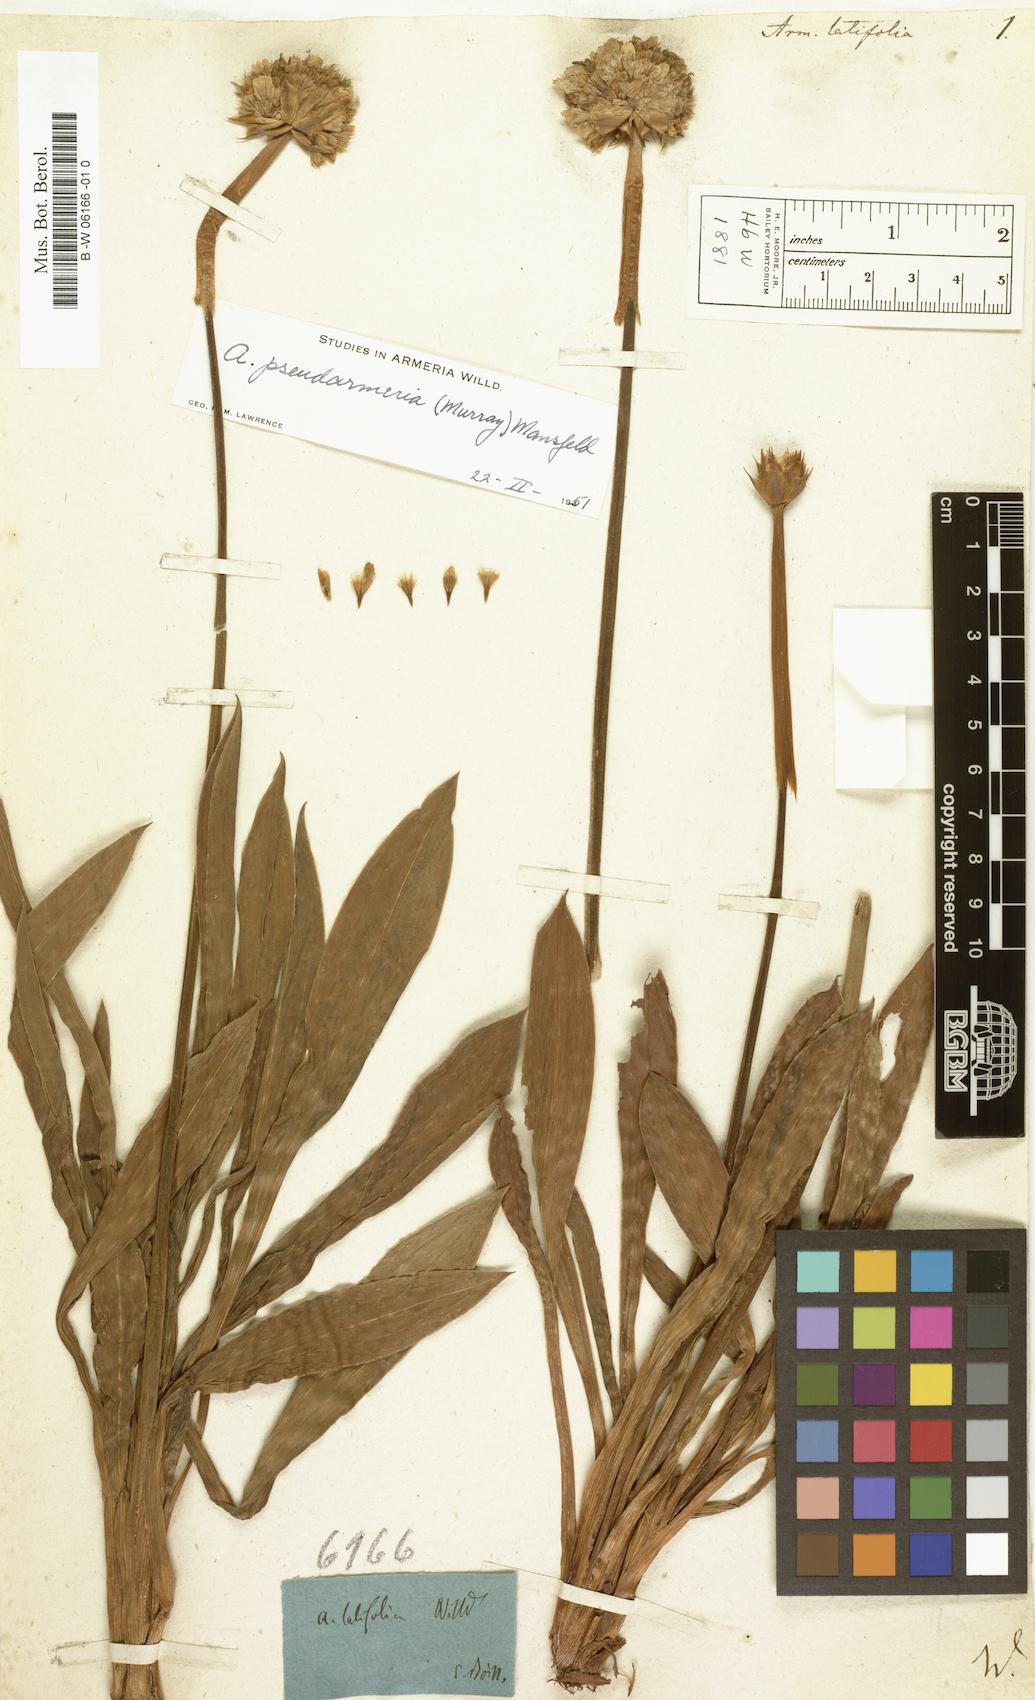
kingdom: Plantae
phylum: Tracheophyta
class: Magnoliopsida
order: Caryophyllales
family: Plumbaginaceae
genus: Armeria
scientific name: Armeria
